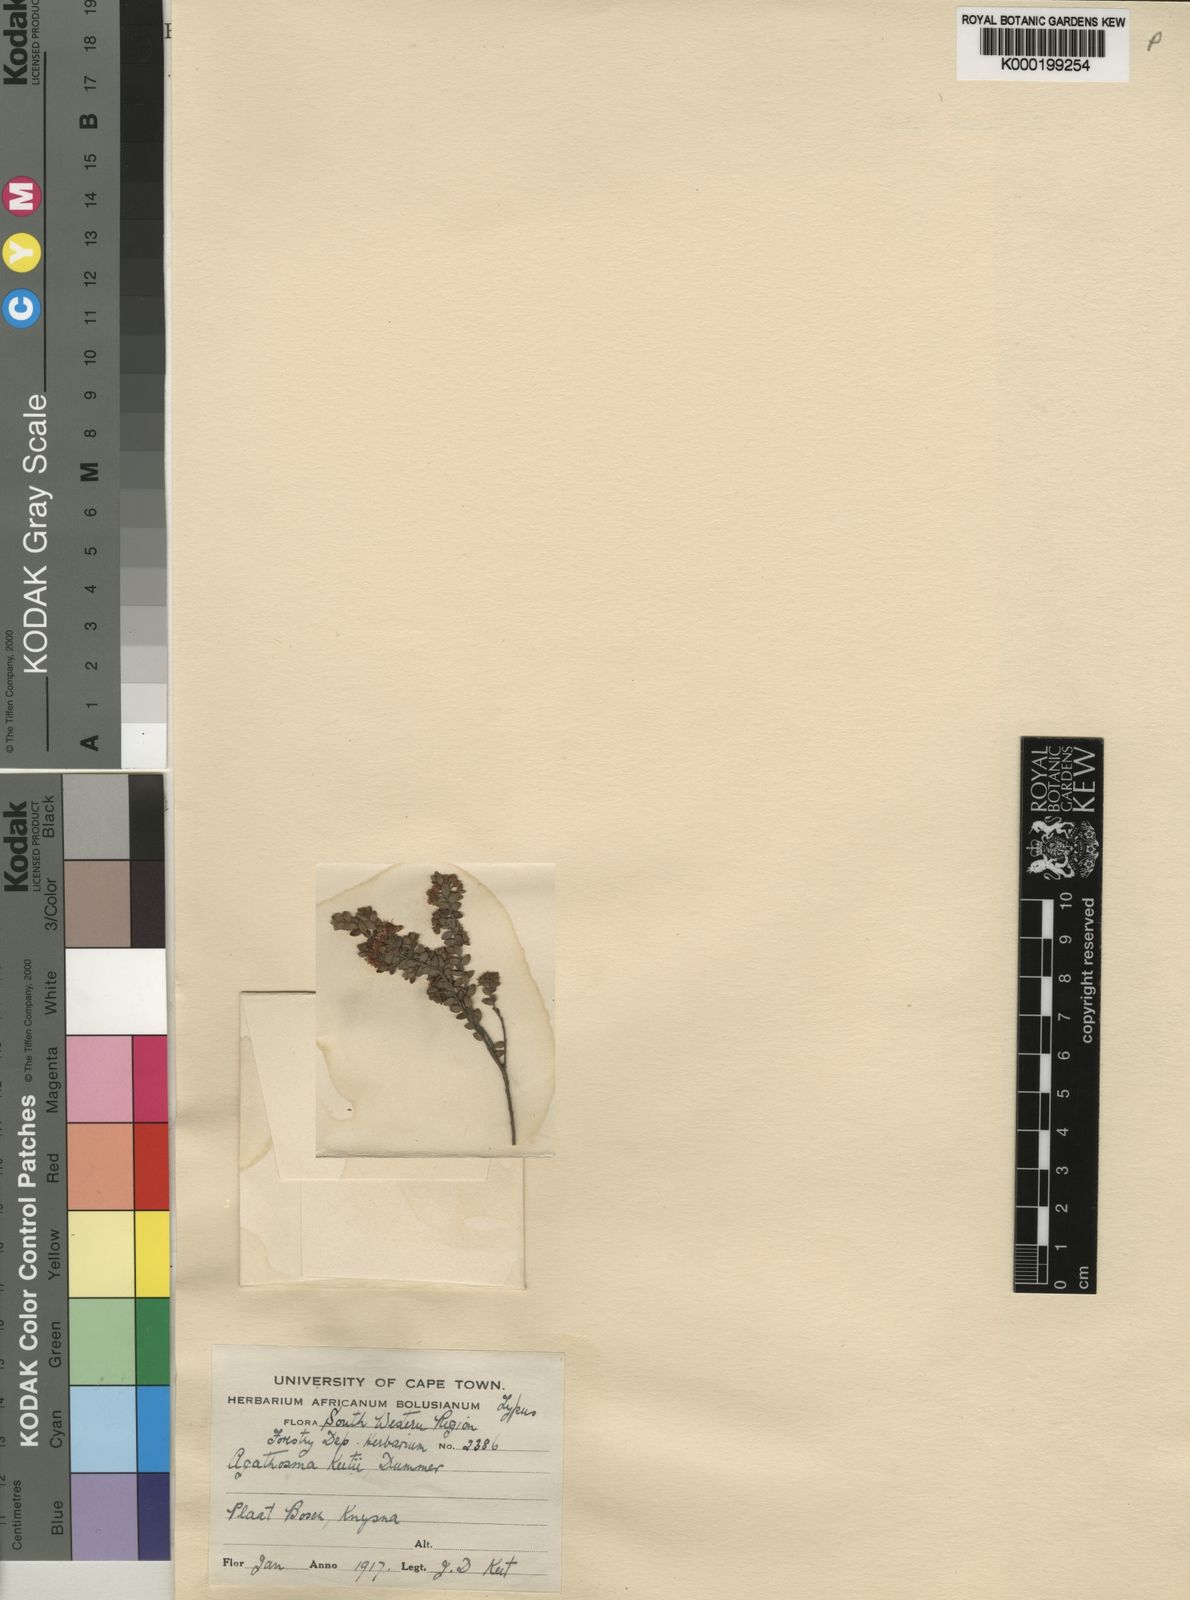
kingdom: Plantae
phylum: Tracheophyta
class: Magnoliopsida
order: Sapindales
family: Rutaceae
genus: Agathosma
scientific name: Agathosma planifolia
